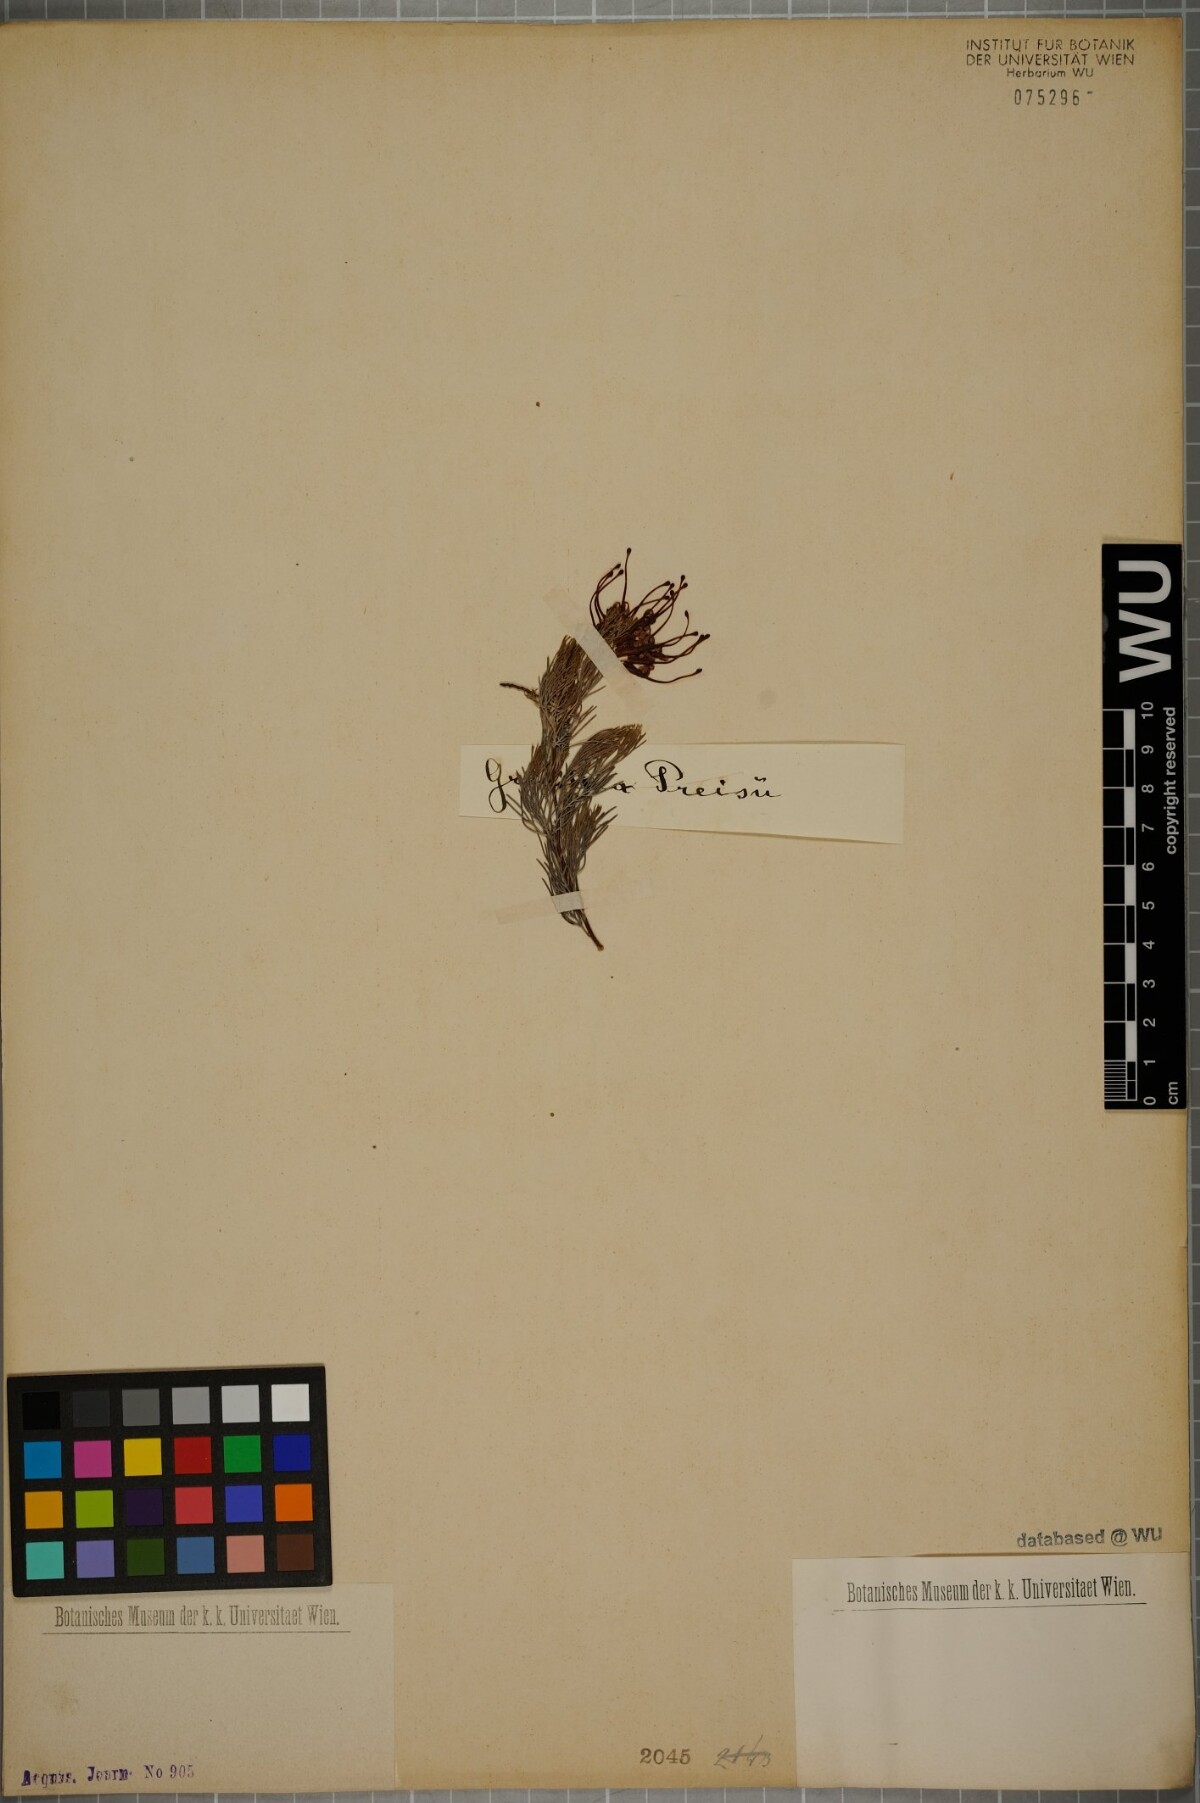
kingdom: Plantae
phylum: Tracheophyta
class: Magnoliopsida
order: Proteales
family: Proteaceae
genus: Grevillea
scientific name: Grevillea thelemanniana
